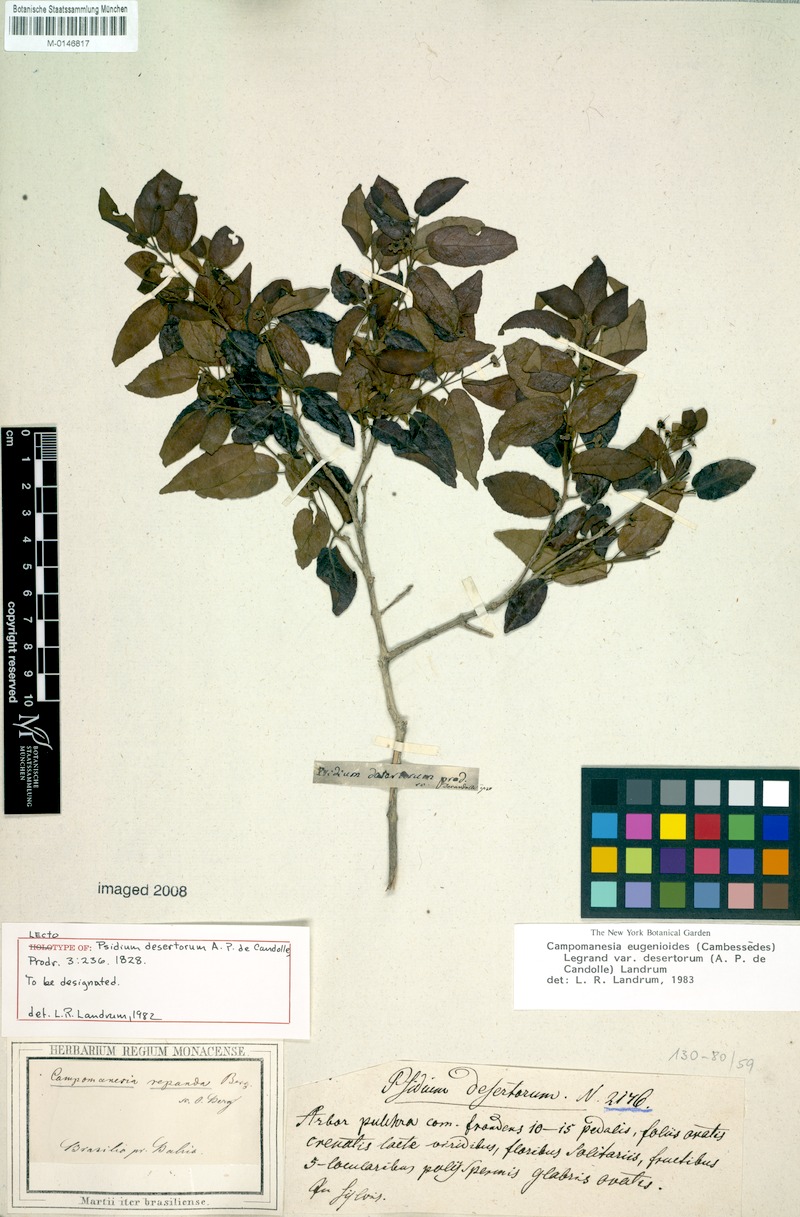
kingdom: Plantae
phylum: Tracheophyta
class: Magnoliopsida
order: Myrtales
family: Myrtaceae
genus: Campomanesia
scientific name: Campomanesia eugenioides
